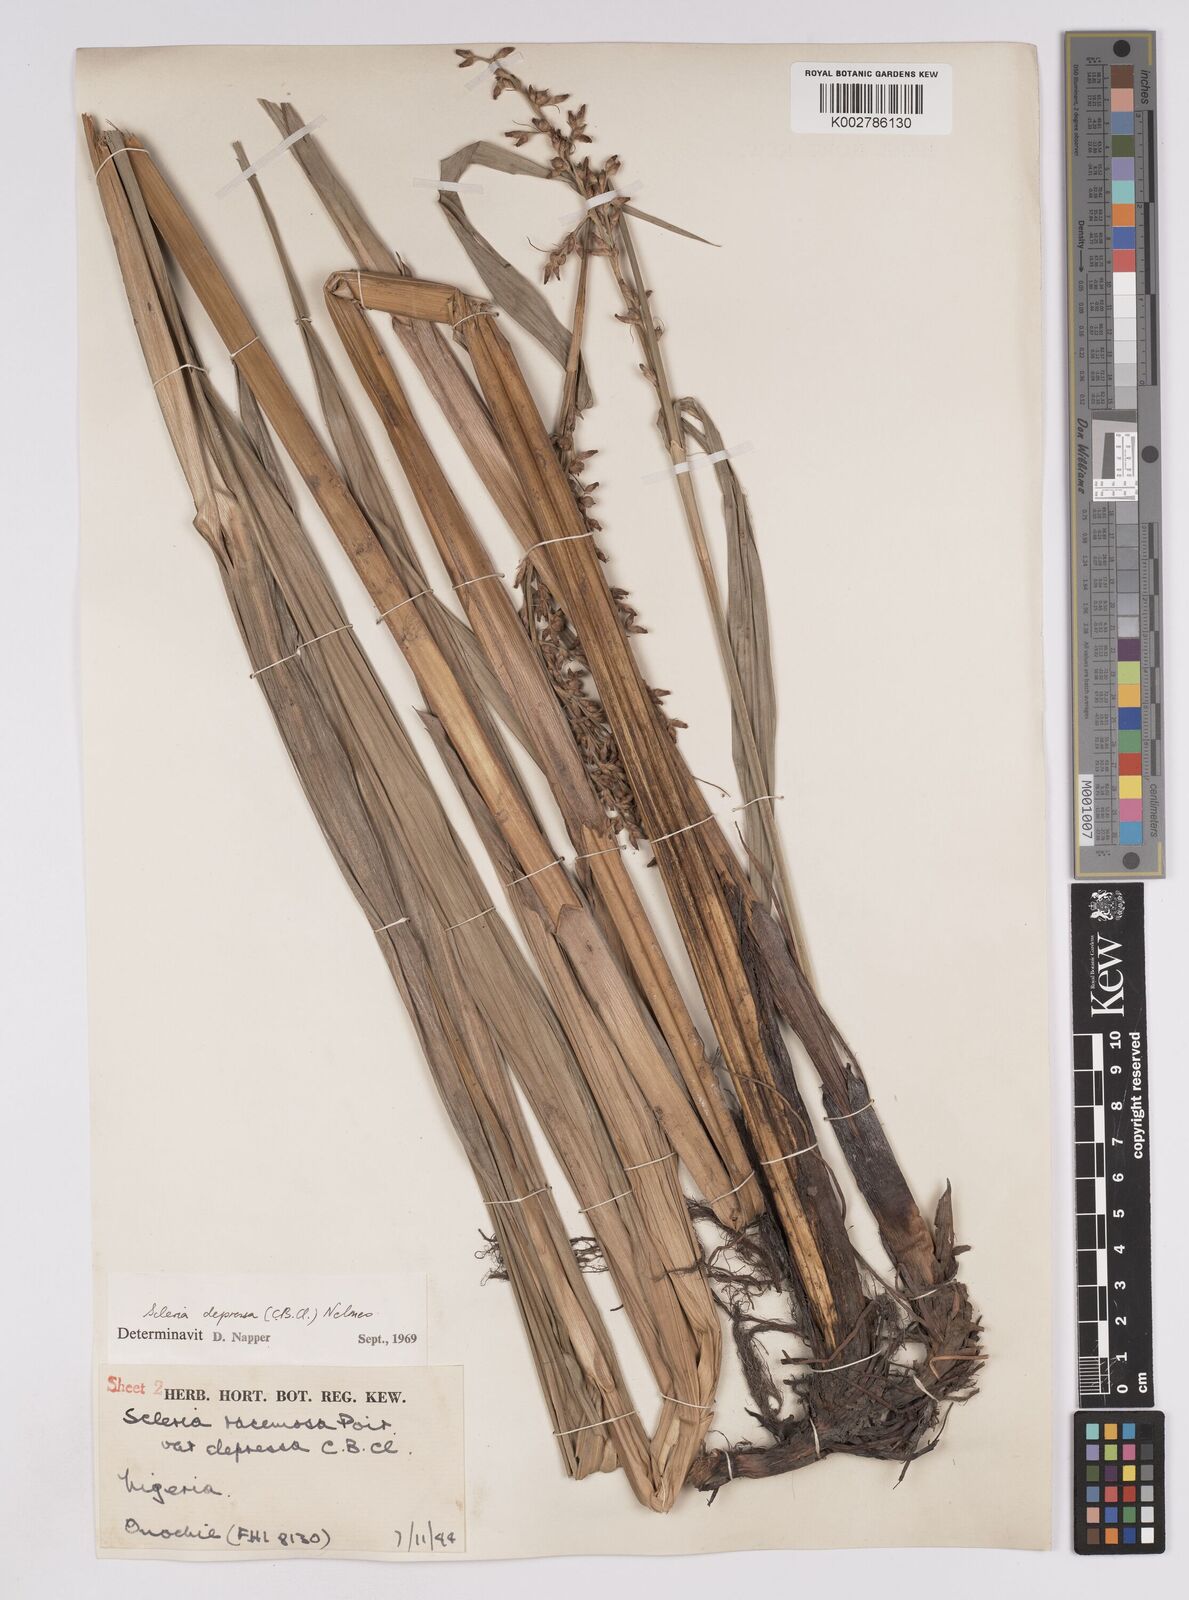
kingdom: Plantae
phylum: Tracheophyta
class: Liliopsida
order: Poales
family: Cyperaceae
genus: Scleria
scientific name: Scleria depressa
